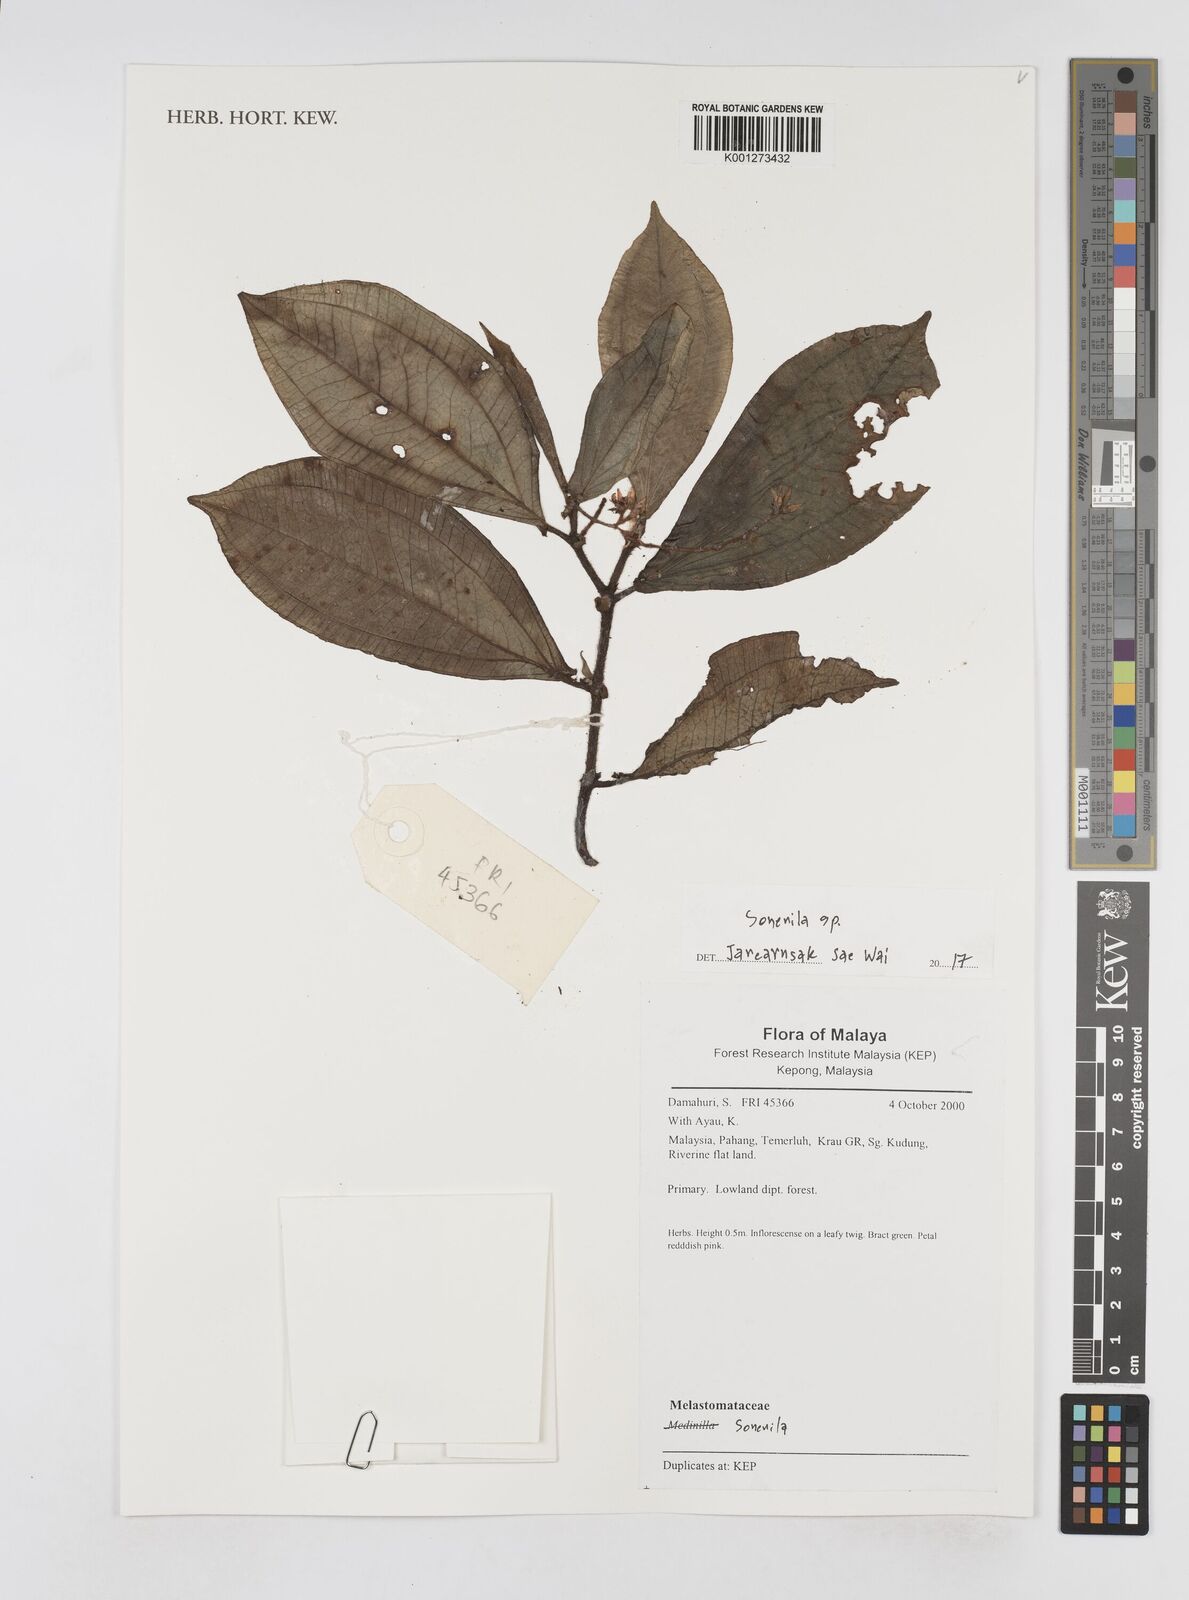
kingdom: Plantae
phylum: Tracheophyta
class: Magnoliopsida
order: Myrtales
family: Melastomataceae
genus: Sonerila
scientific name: Sonerila
